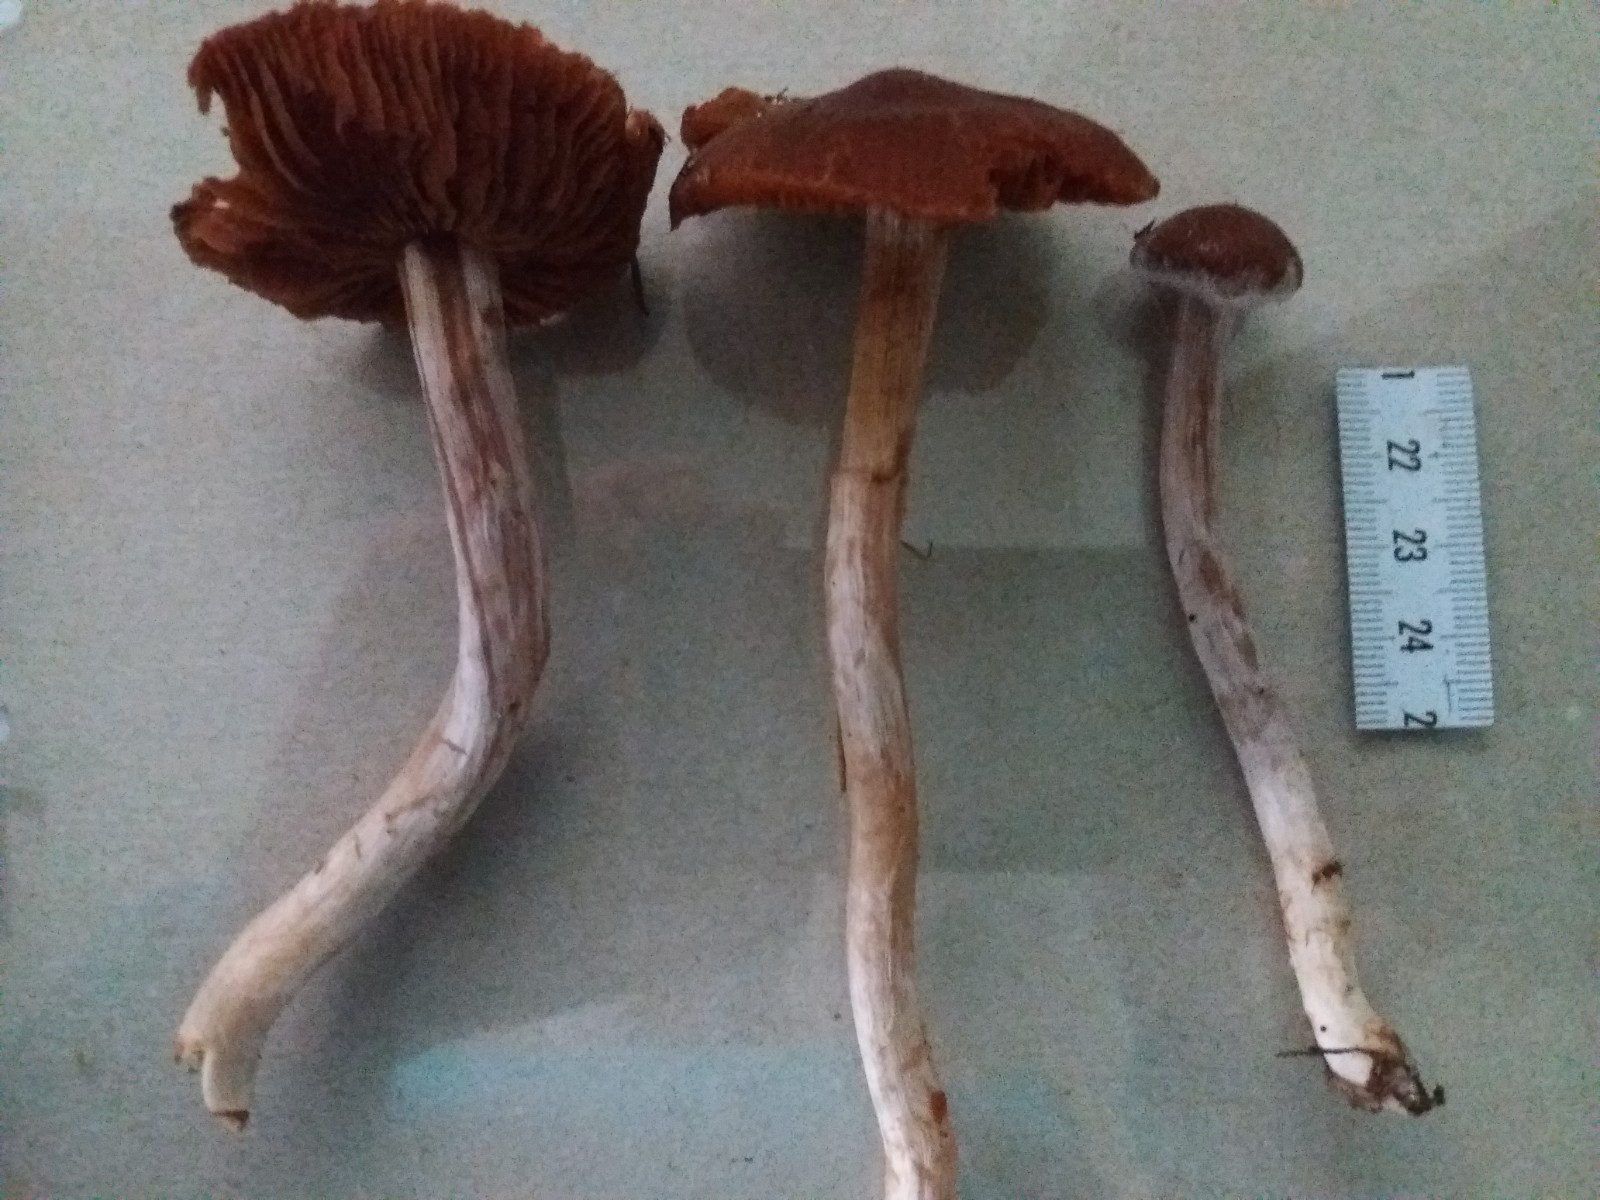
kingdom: Fungi
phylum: Basidiomycota
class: Agaricomycetes
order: Agaricales
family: Cortinariaceae
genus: Cortinarius
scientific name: Cortinarius
